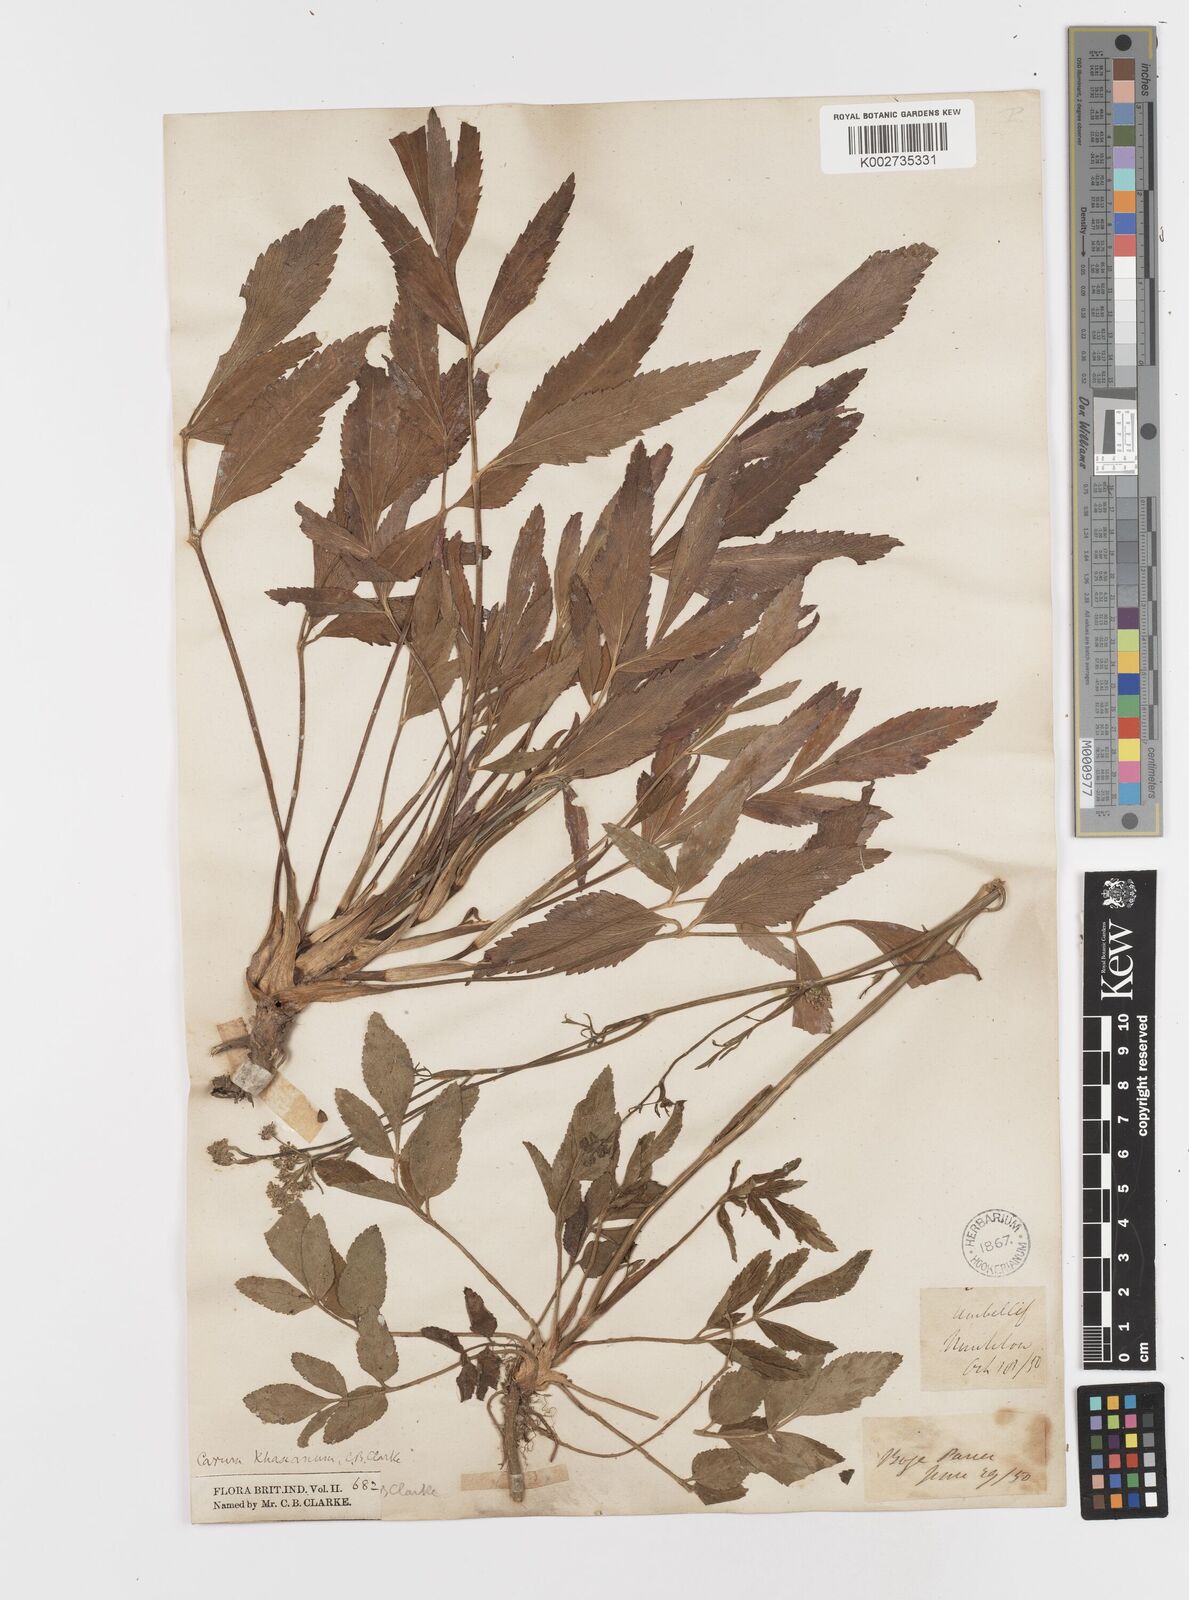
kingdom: Plantae
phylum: Tracheophyta
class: Magnoliopsida
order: Apiales
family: Apiaceae
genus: Trachyspermum
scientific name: Trachyspermum khasianum
